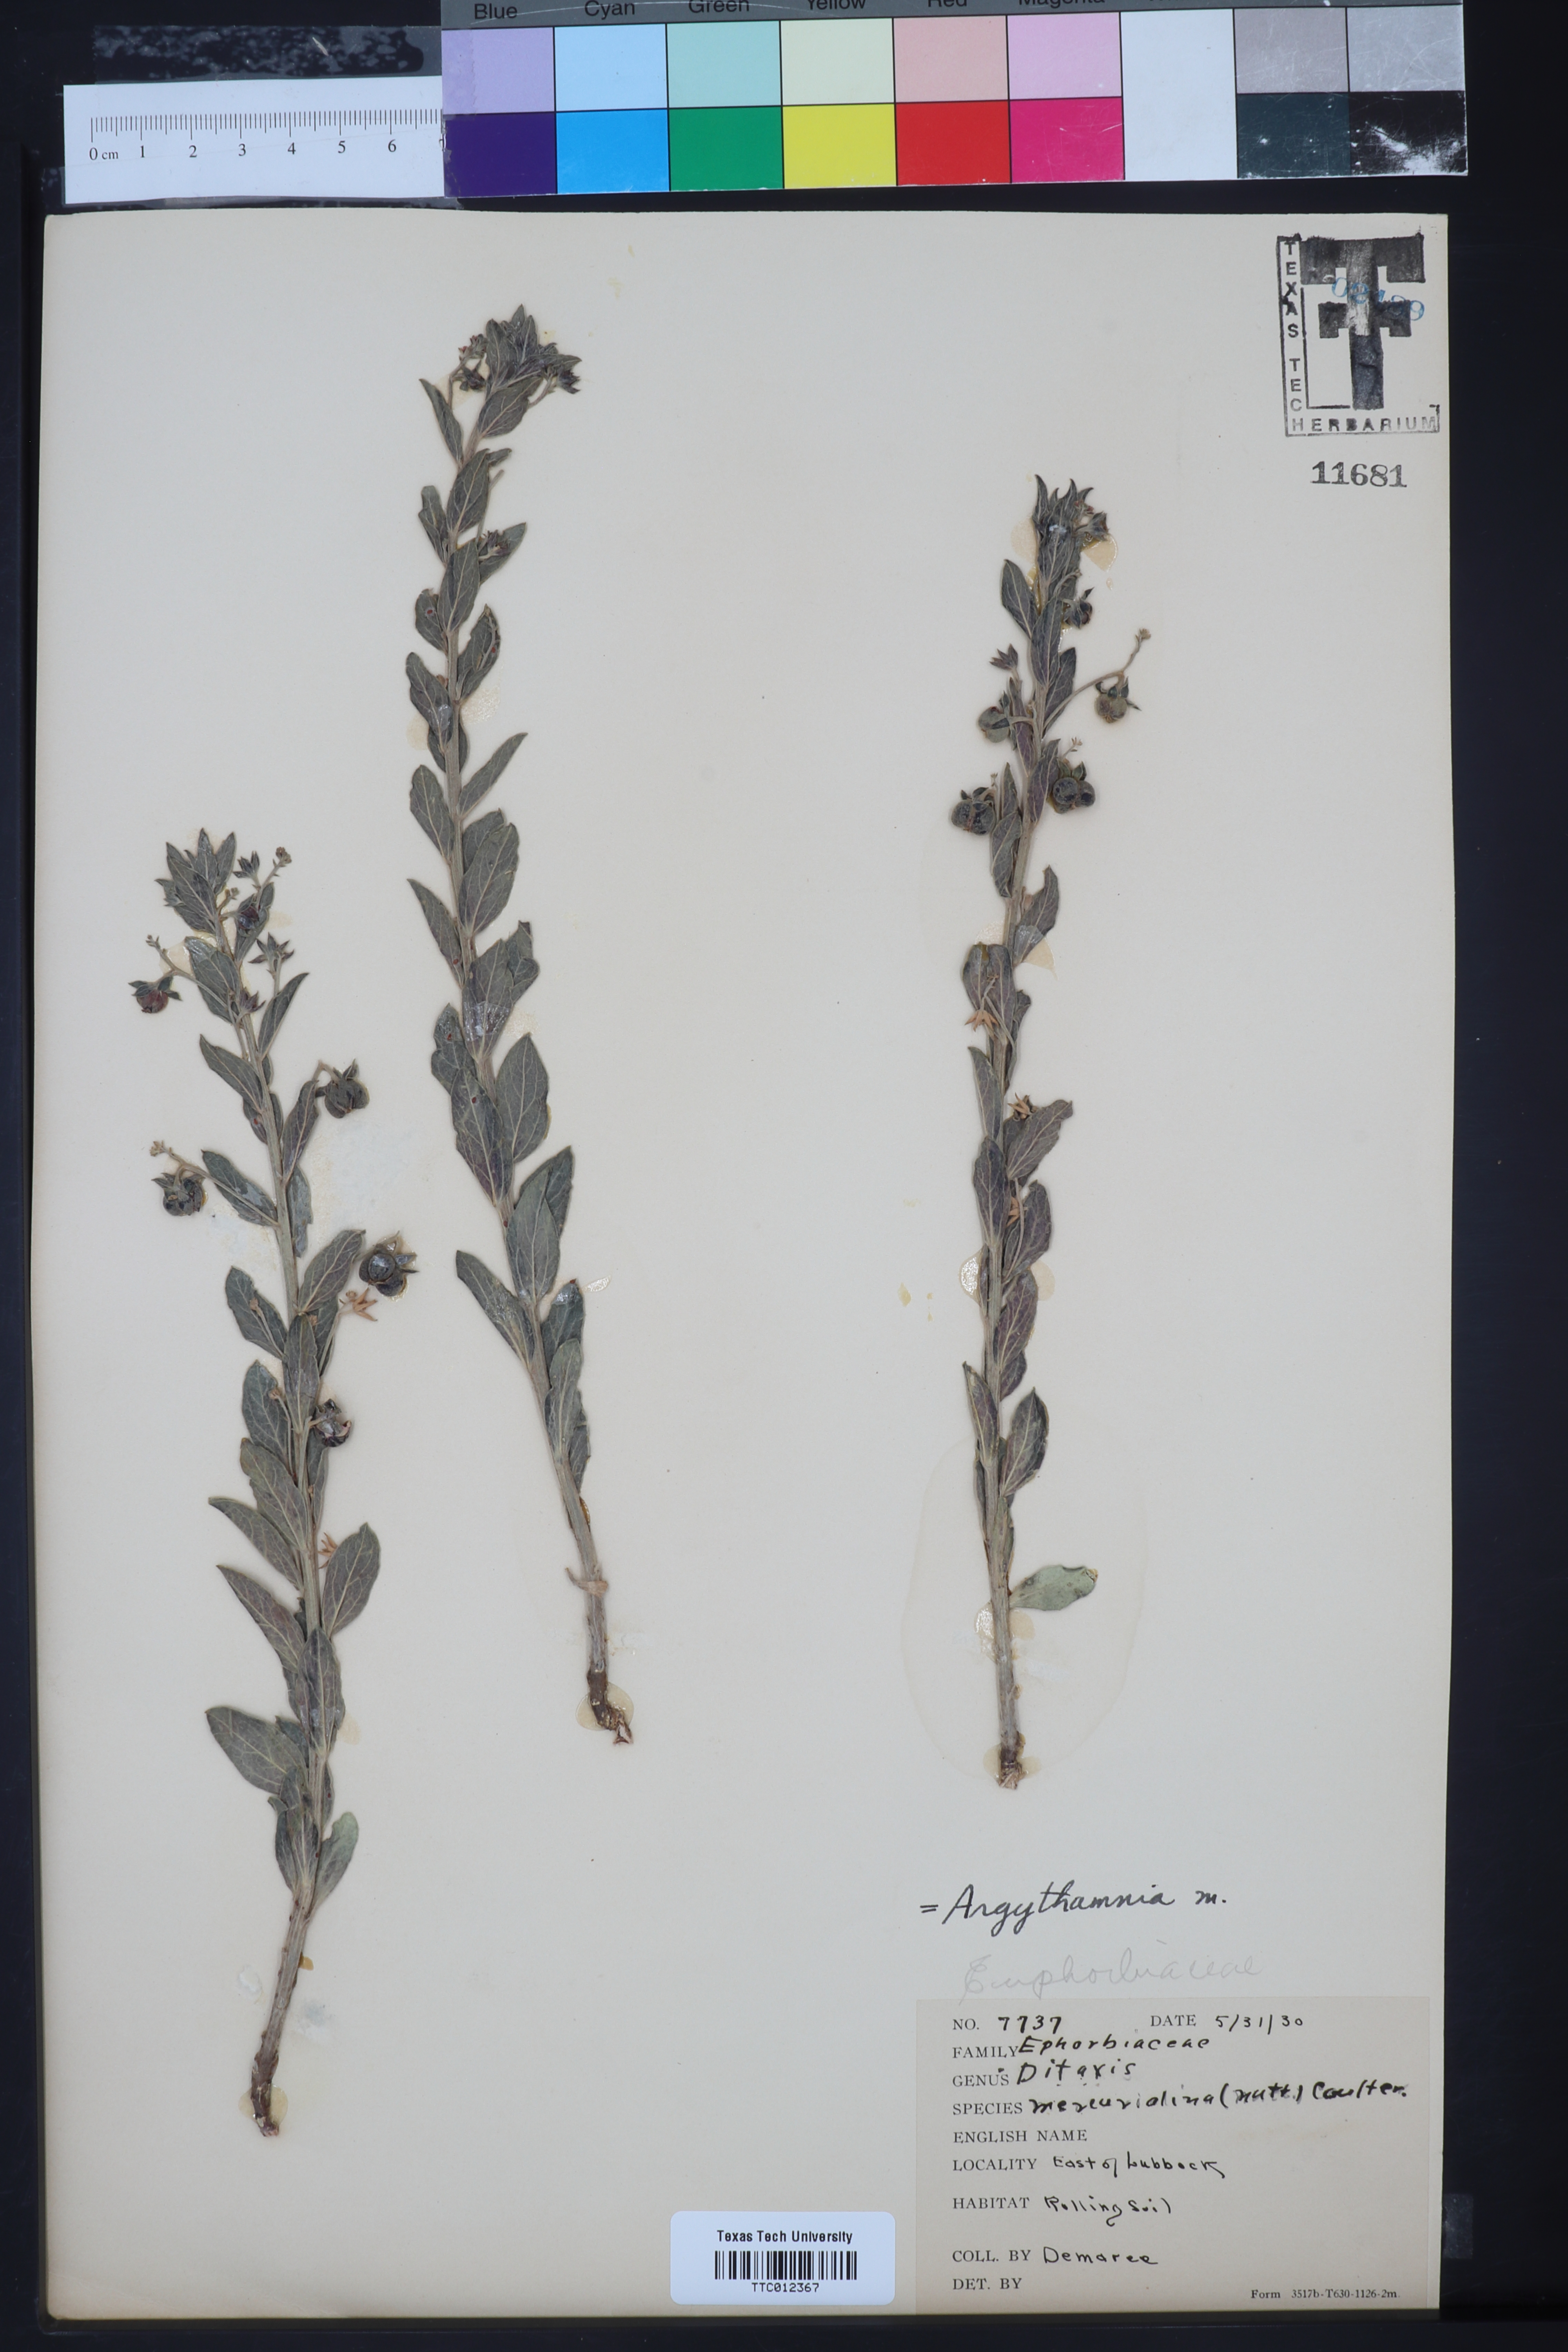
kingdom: Plantae
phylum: Tracheophyta
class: Magnoliopsida
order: Malpighiales
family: Euphorbiaceae
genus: Ditaxis
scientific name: Ditaxis mercurialina
